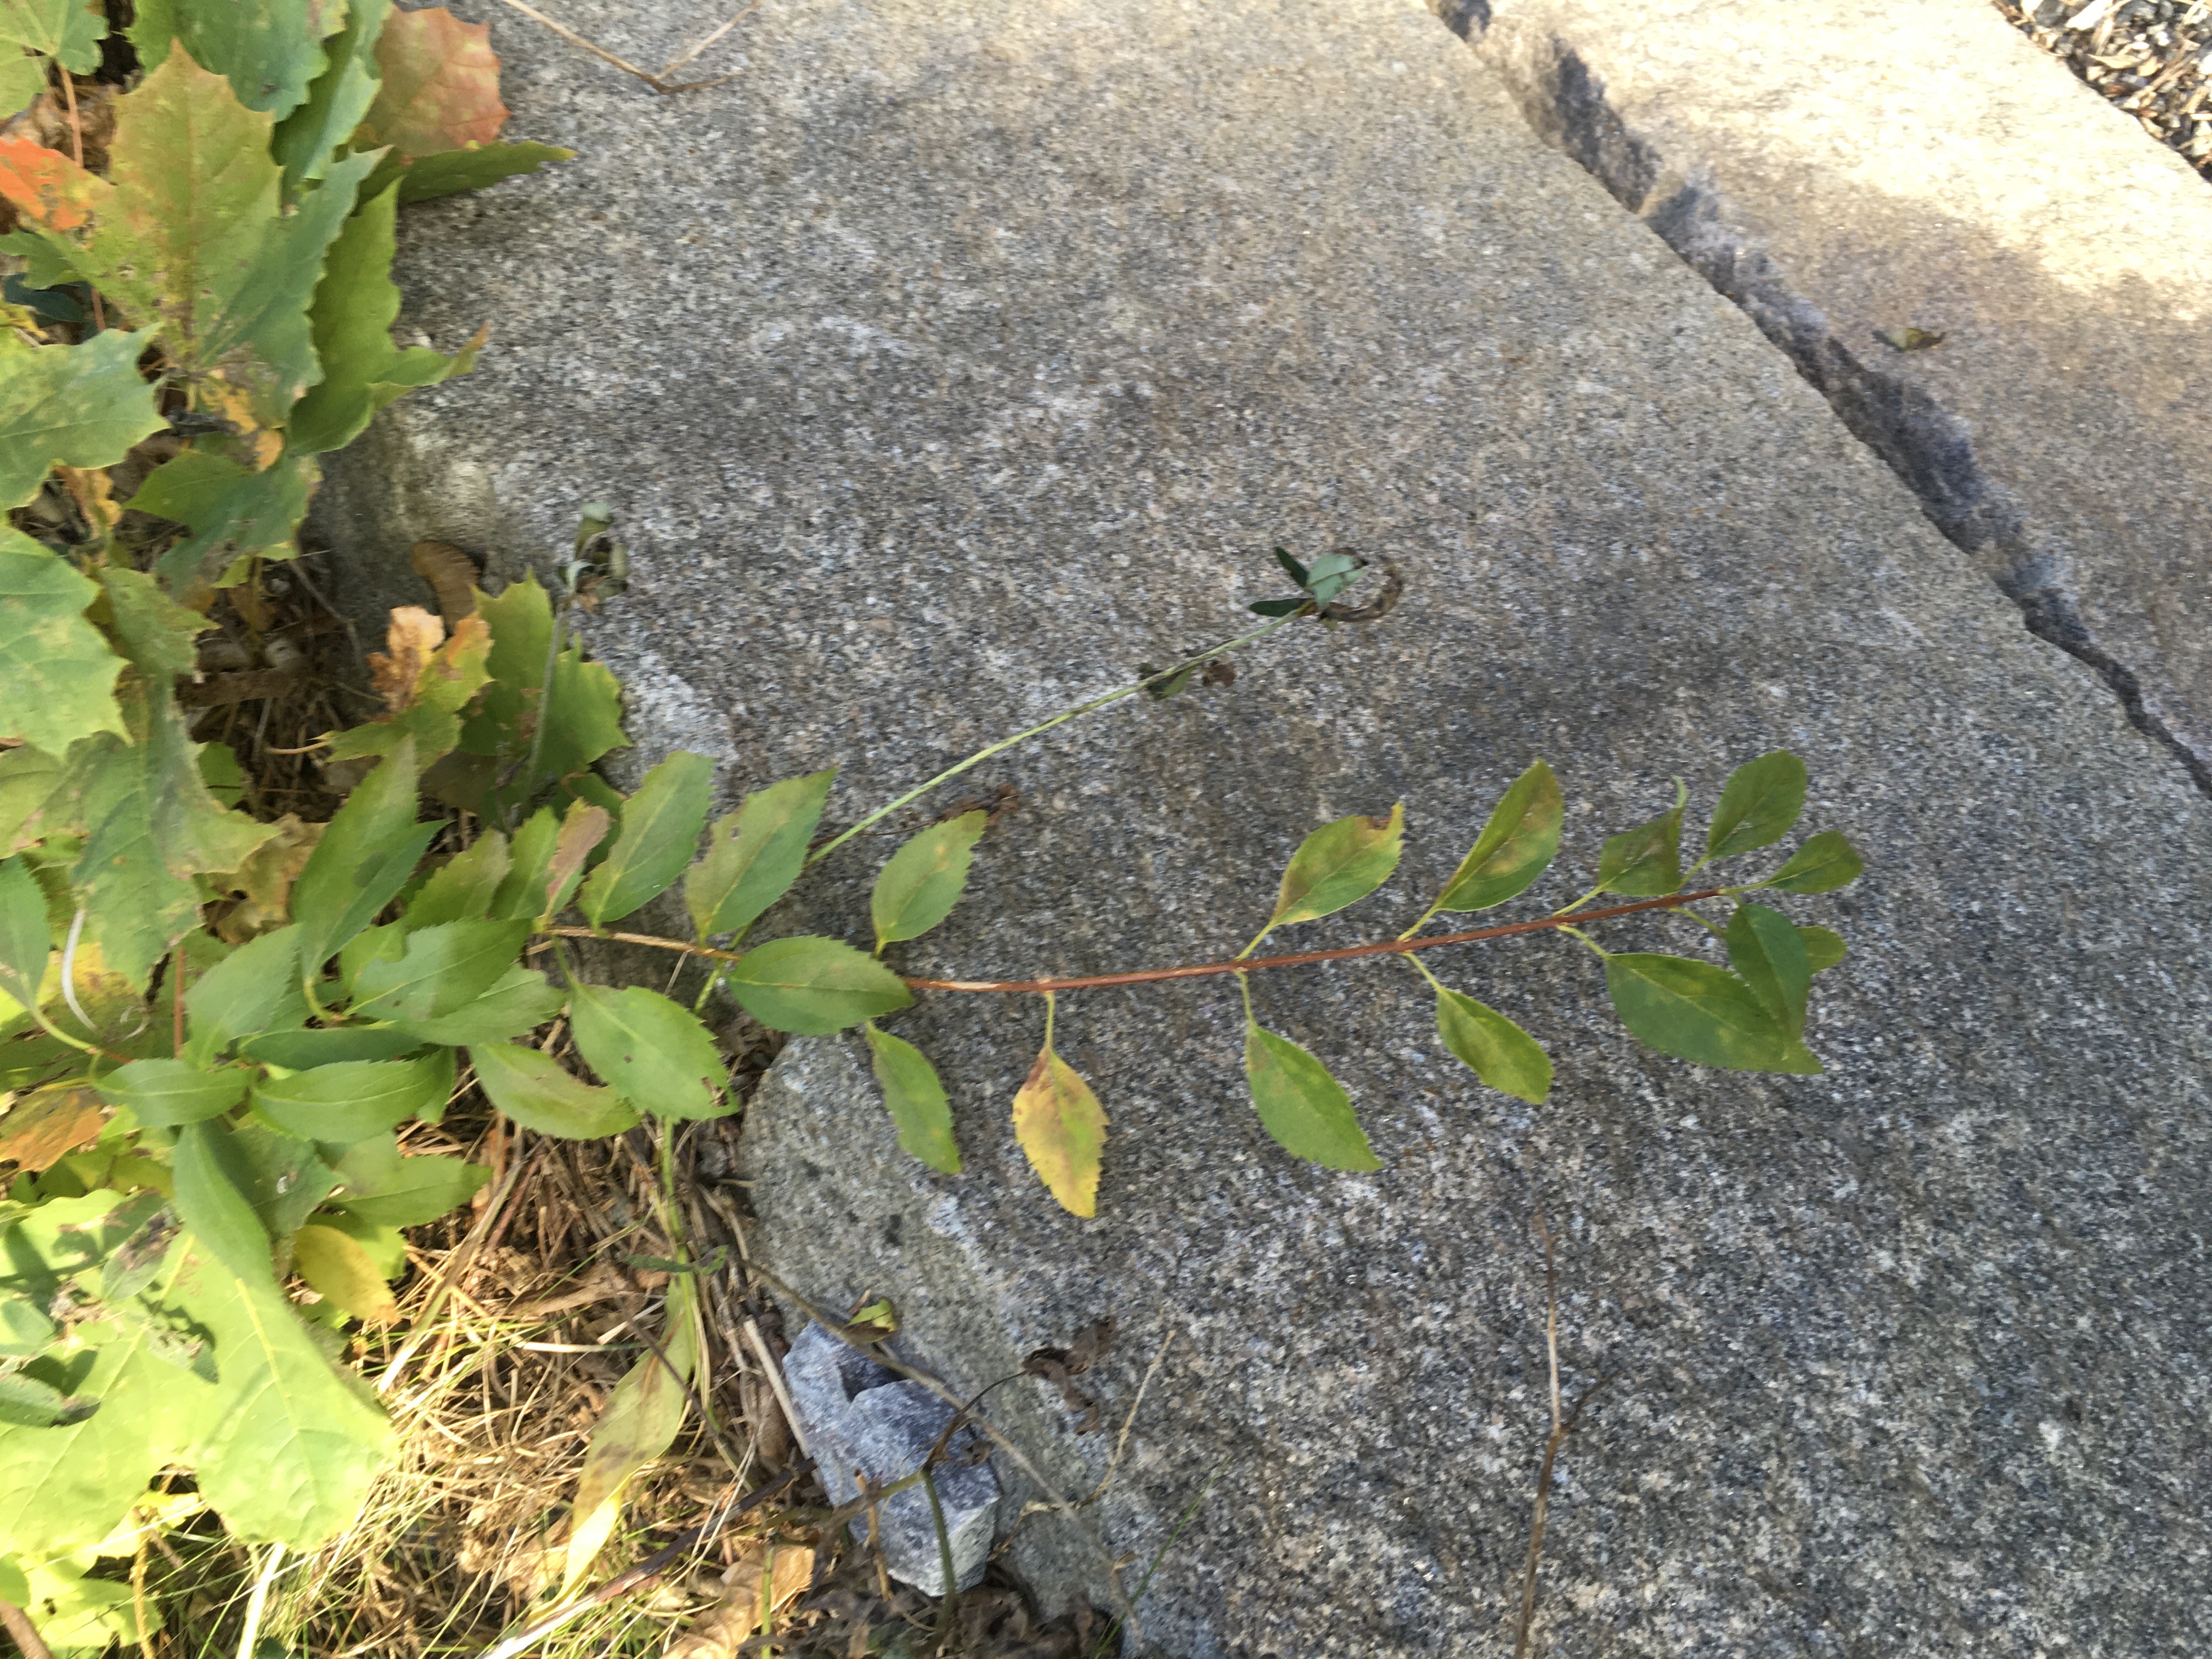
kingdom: Plantae
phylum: Tracheophyta
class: Magnoliopsida
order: Lamiales
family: Oleaceae
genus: Forsythia
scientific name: Forsythia intermedia
